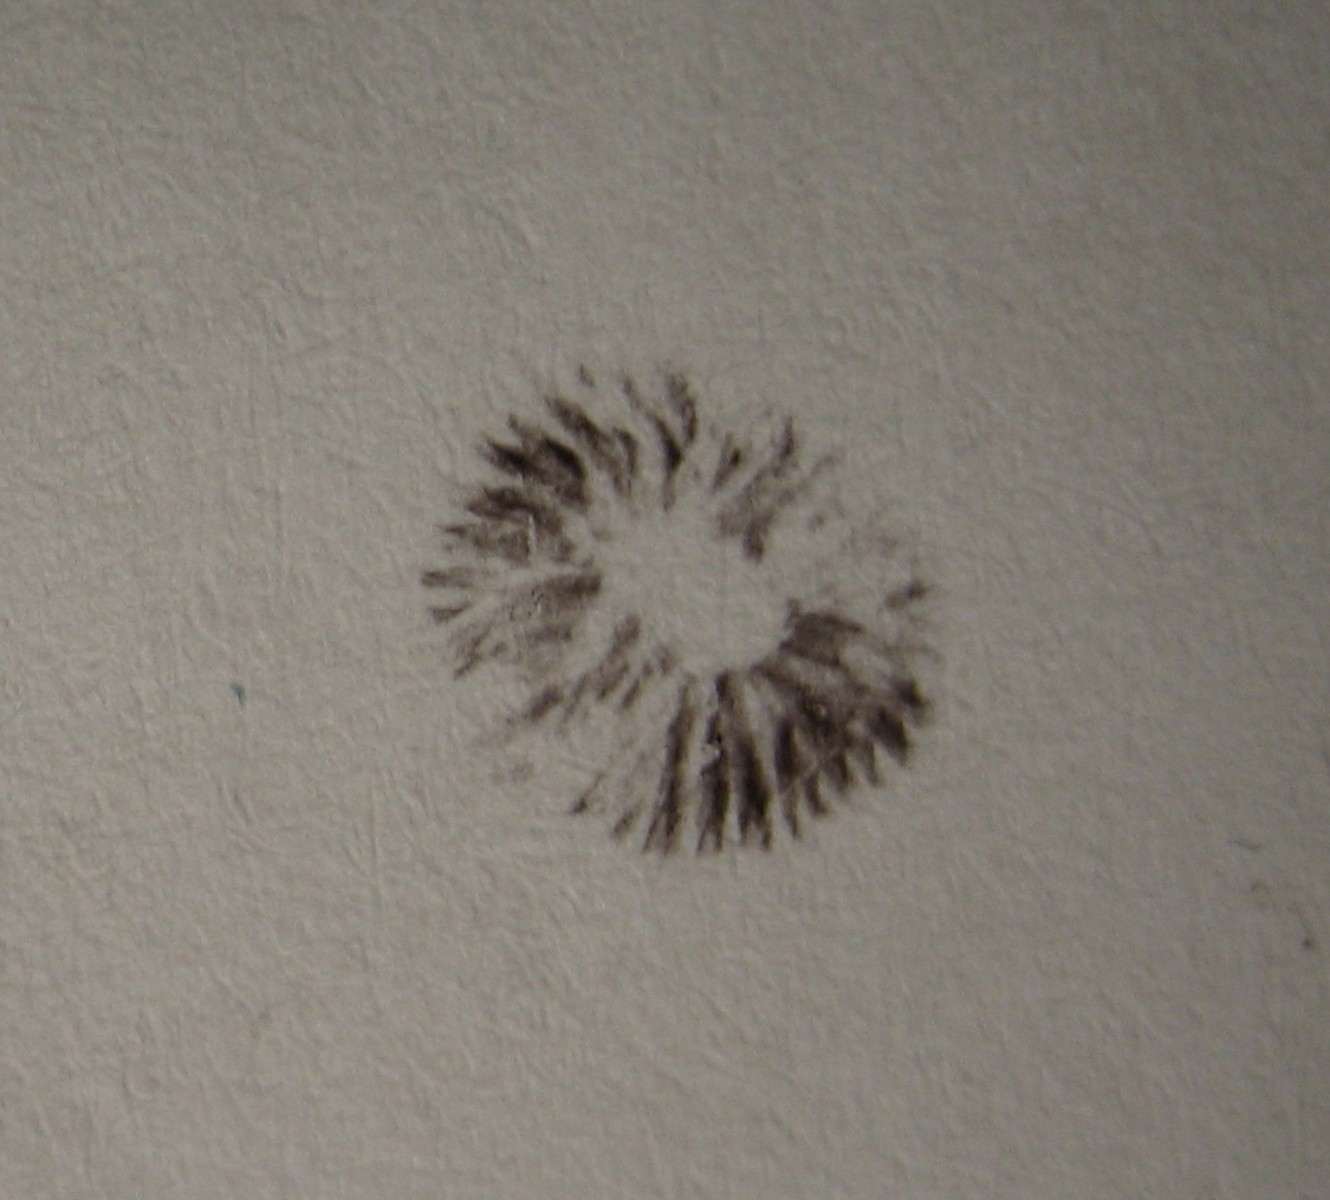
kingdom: Fungi
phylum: Basidiomycota
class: Agaricomycetes
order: Agaricales
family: Strophariaceae
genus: Deconica
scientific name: Deconica
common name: stråhat
